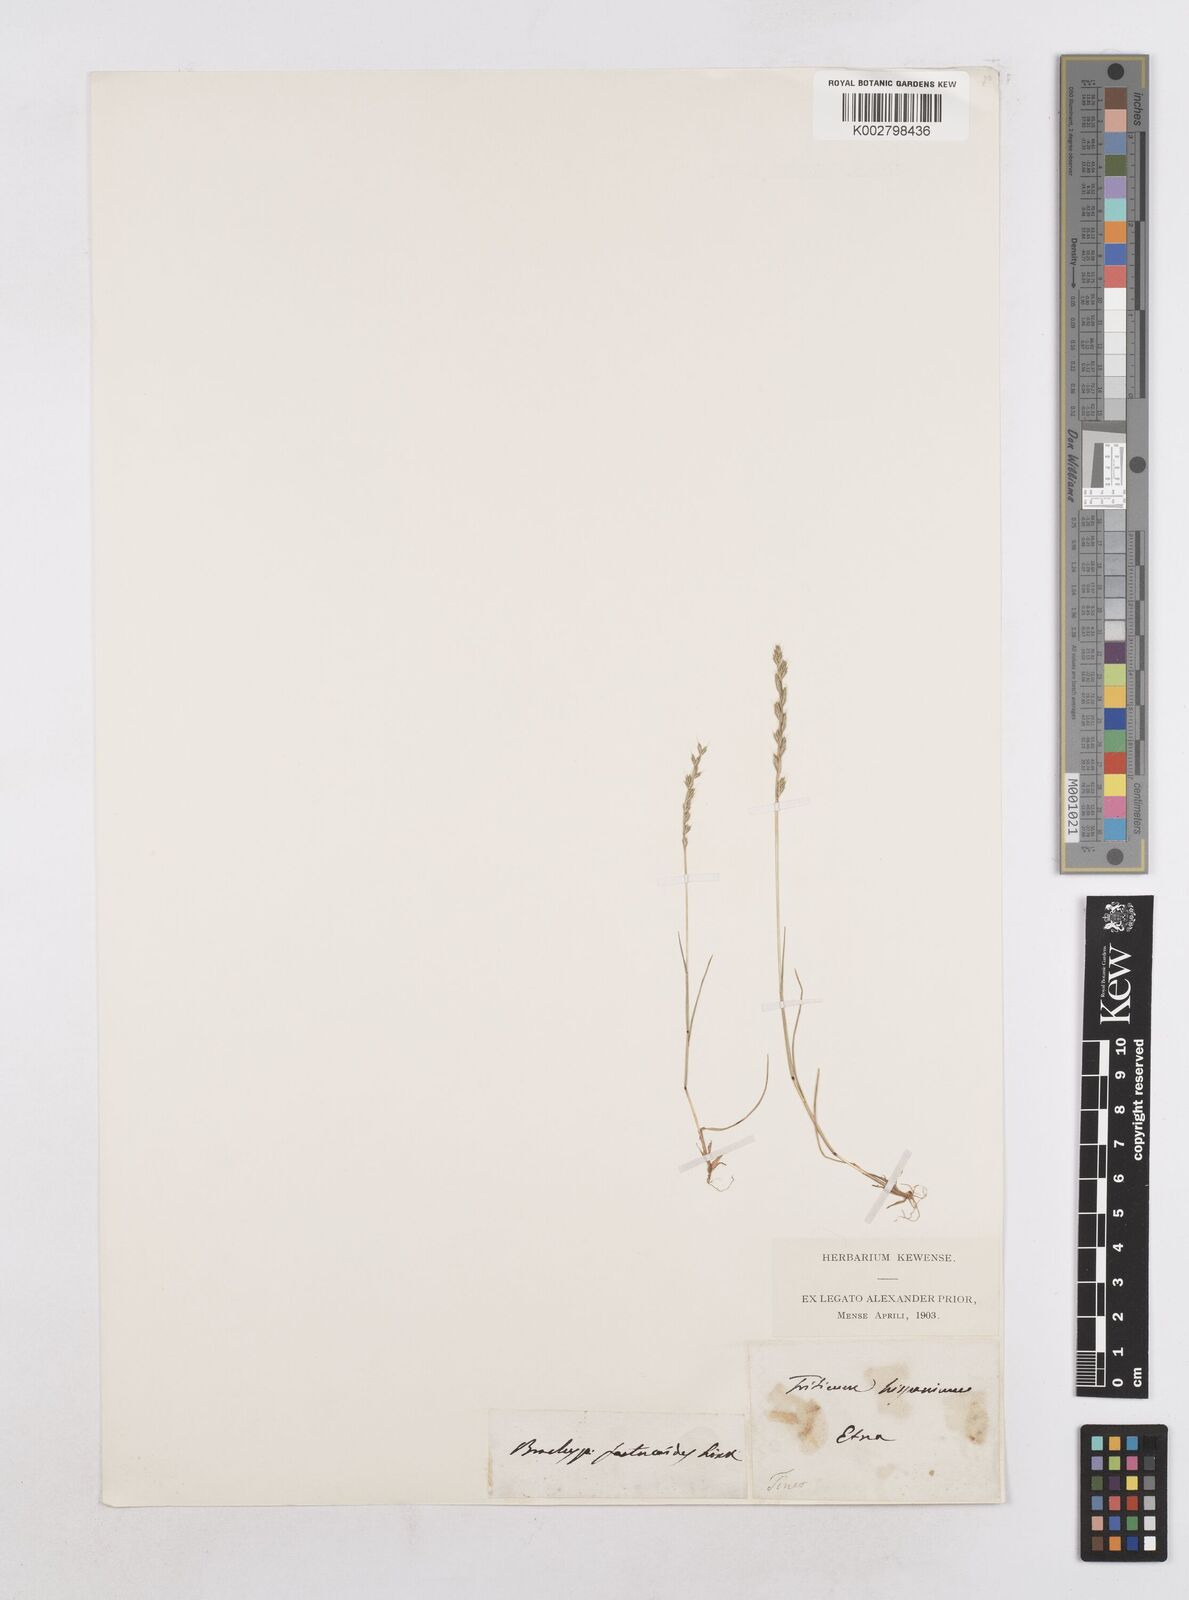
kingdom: Plantae
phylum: Tracheophyta
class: Liliopsida
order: Poales
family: Poaceae
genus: Festuca
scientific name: Festuca lachenalii
